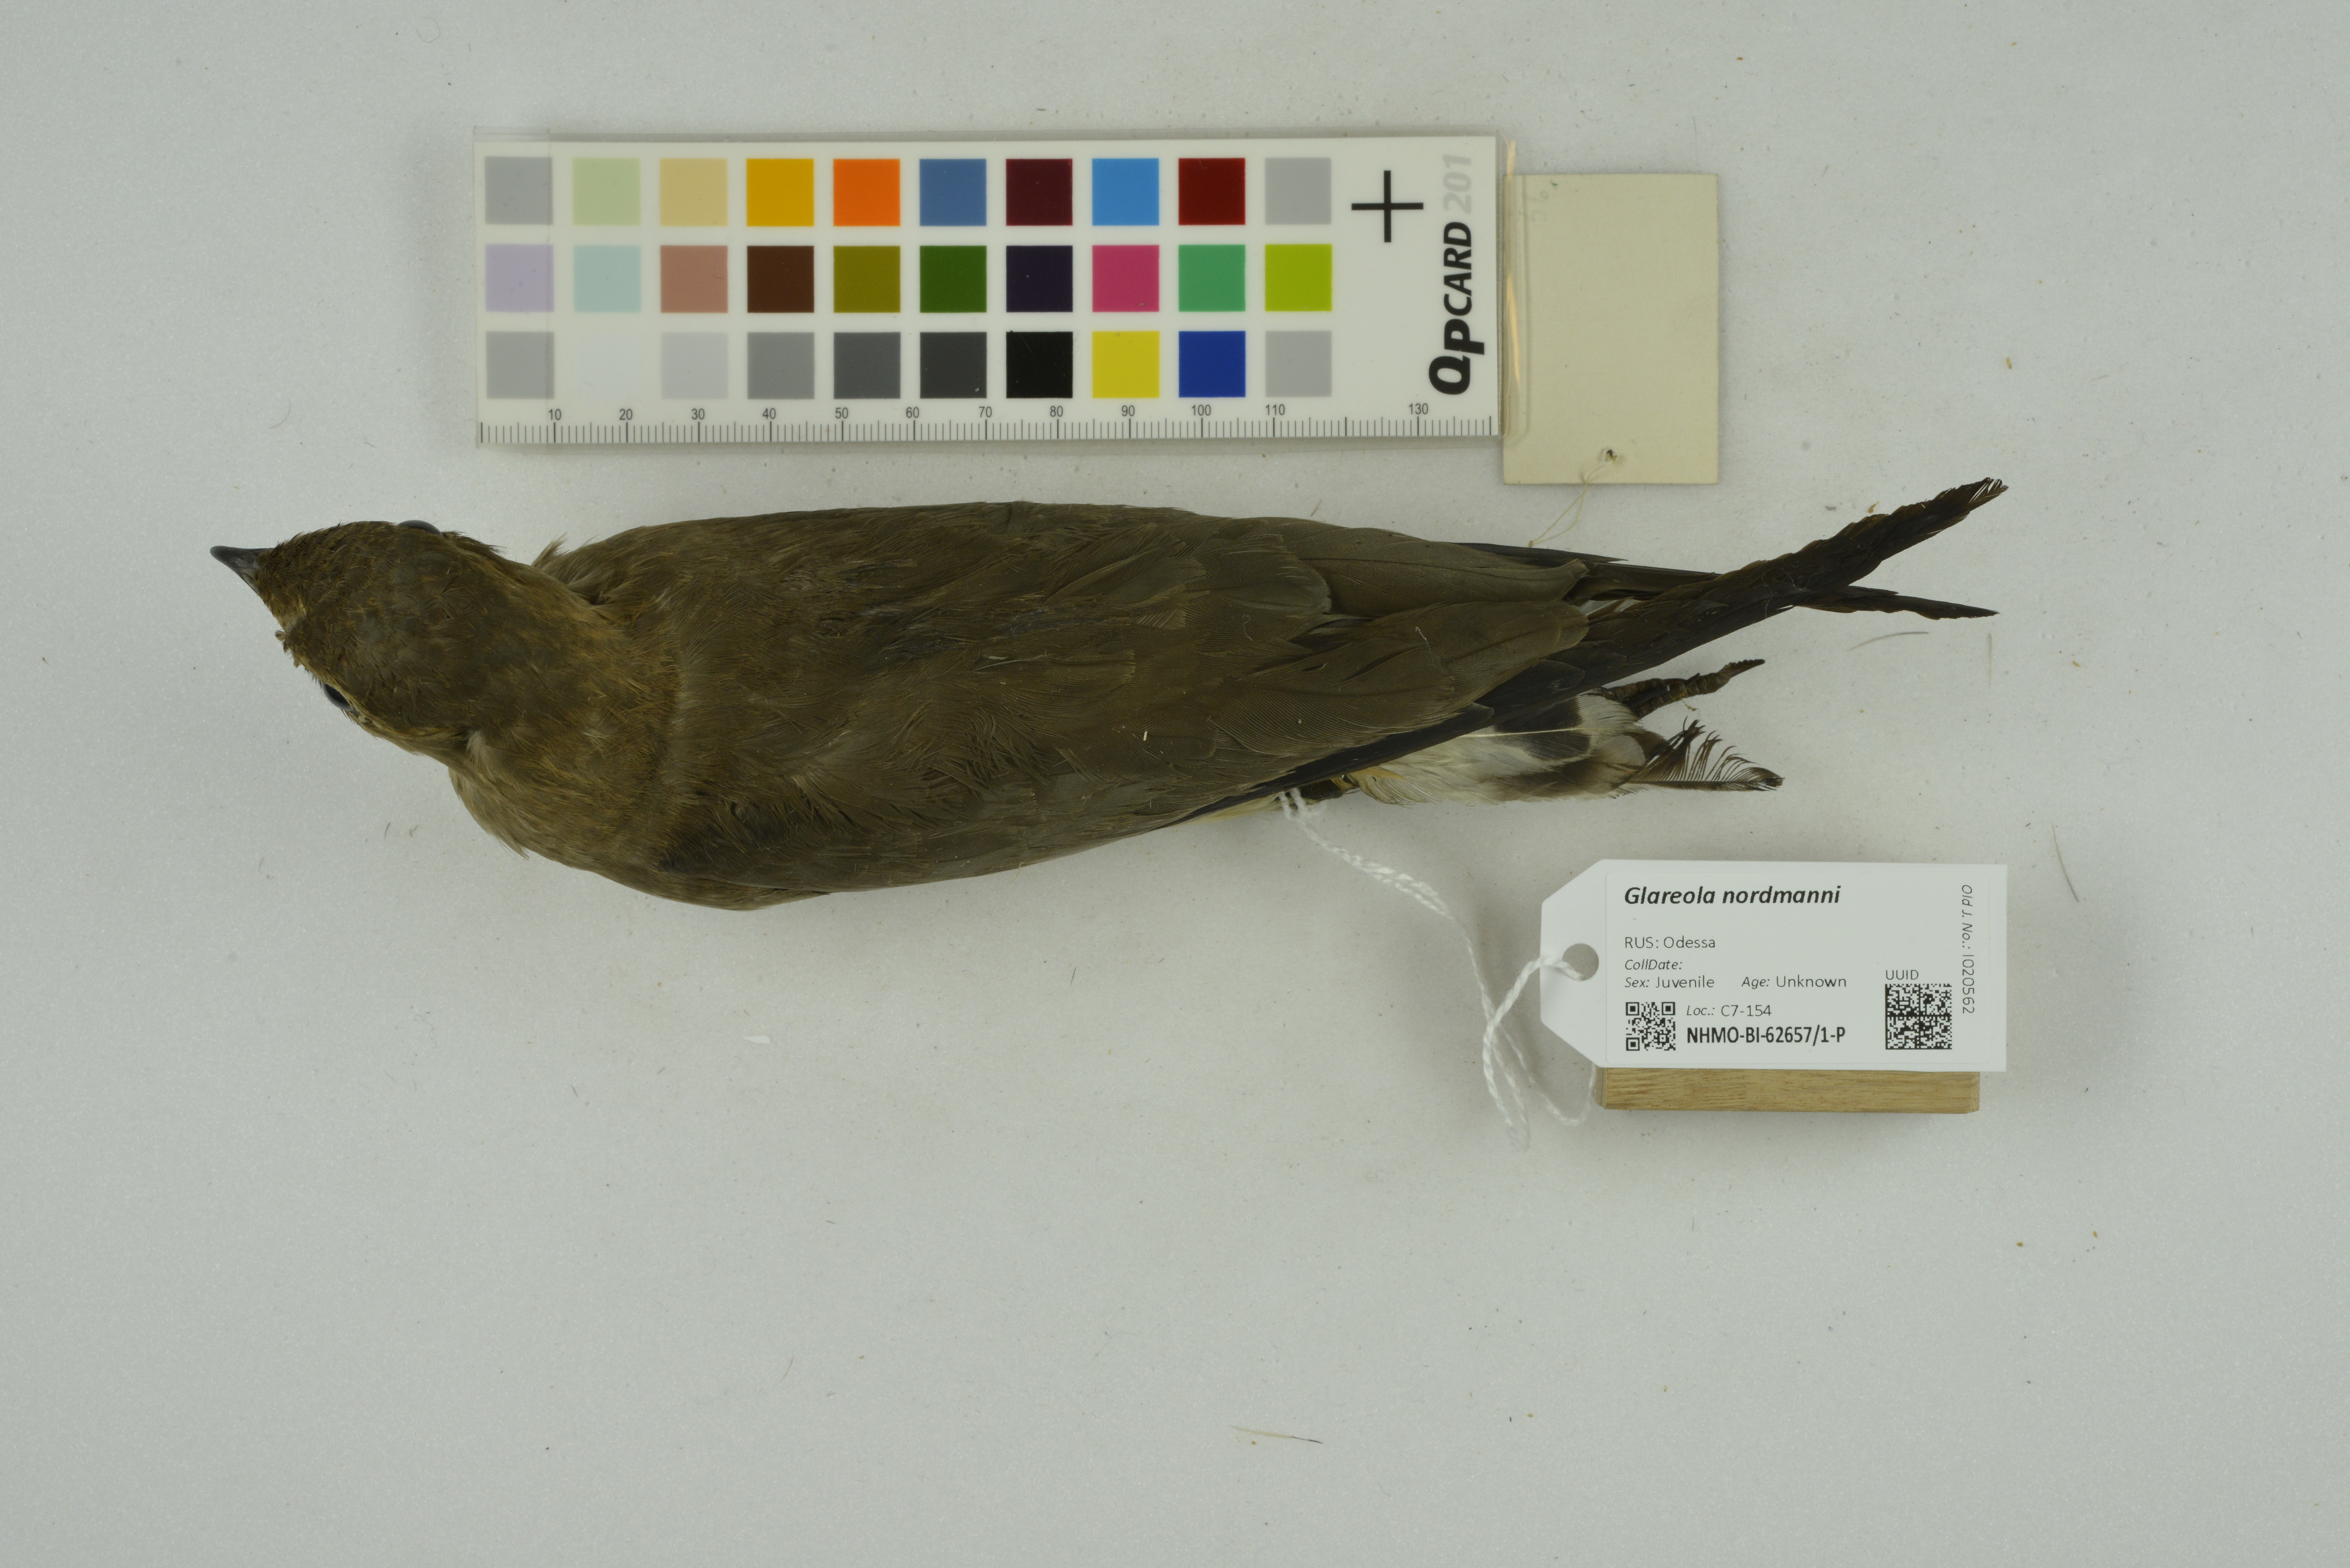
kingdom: Animalia
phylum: Chordata
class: Aves
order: Charadriiformes
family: Glareolidae
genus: Glareola
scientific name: Glareola nordmanni
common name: Black-winged pratincole
